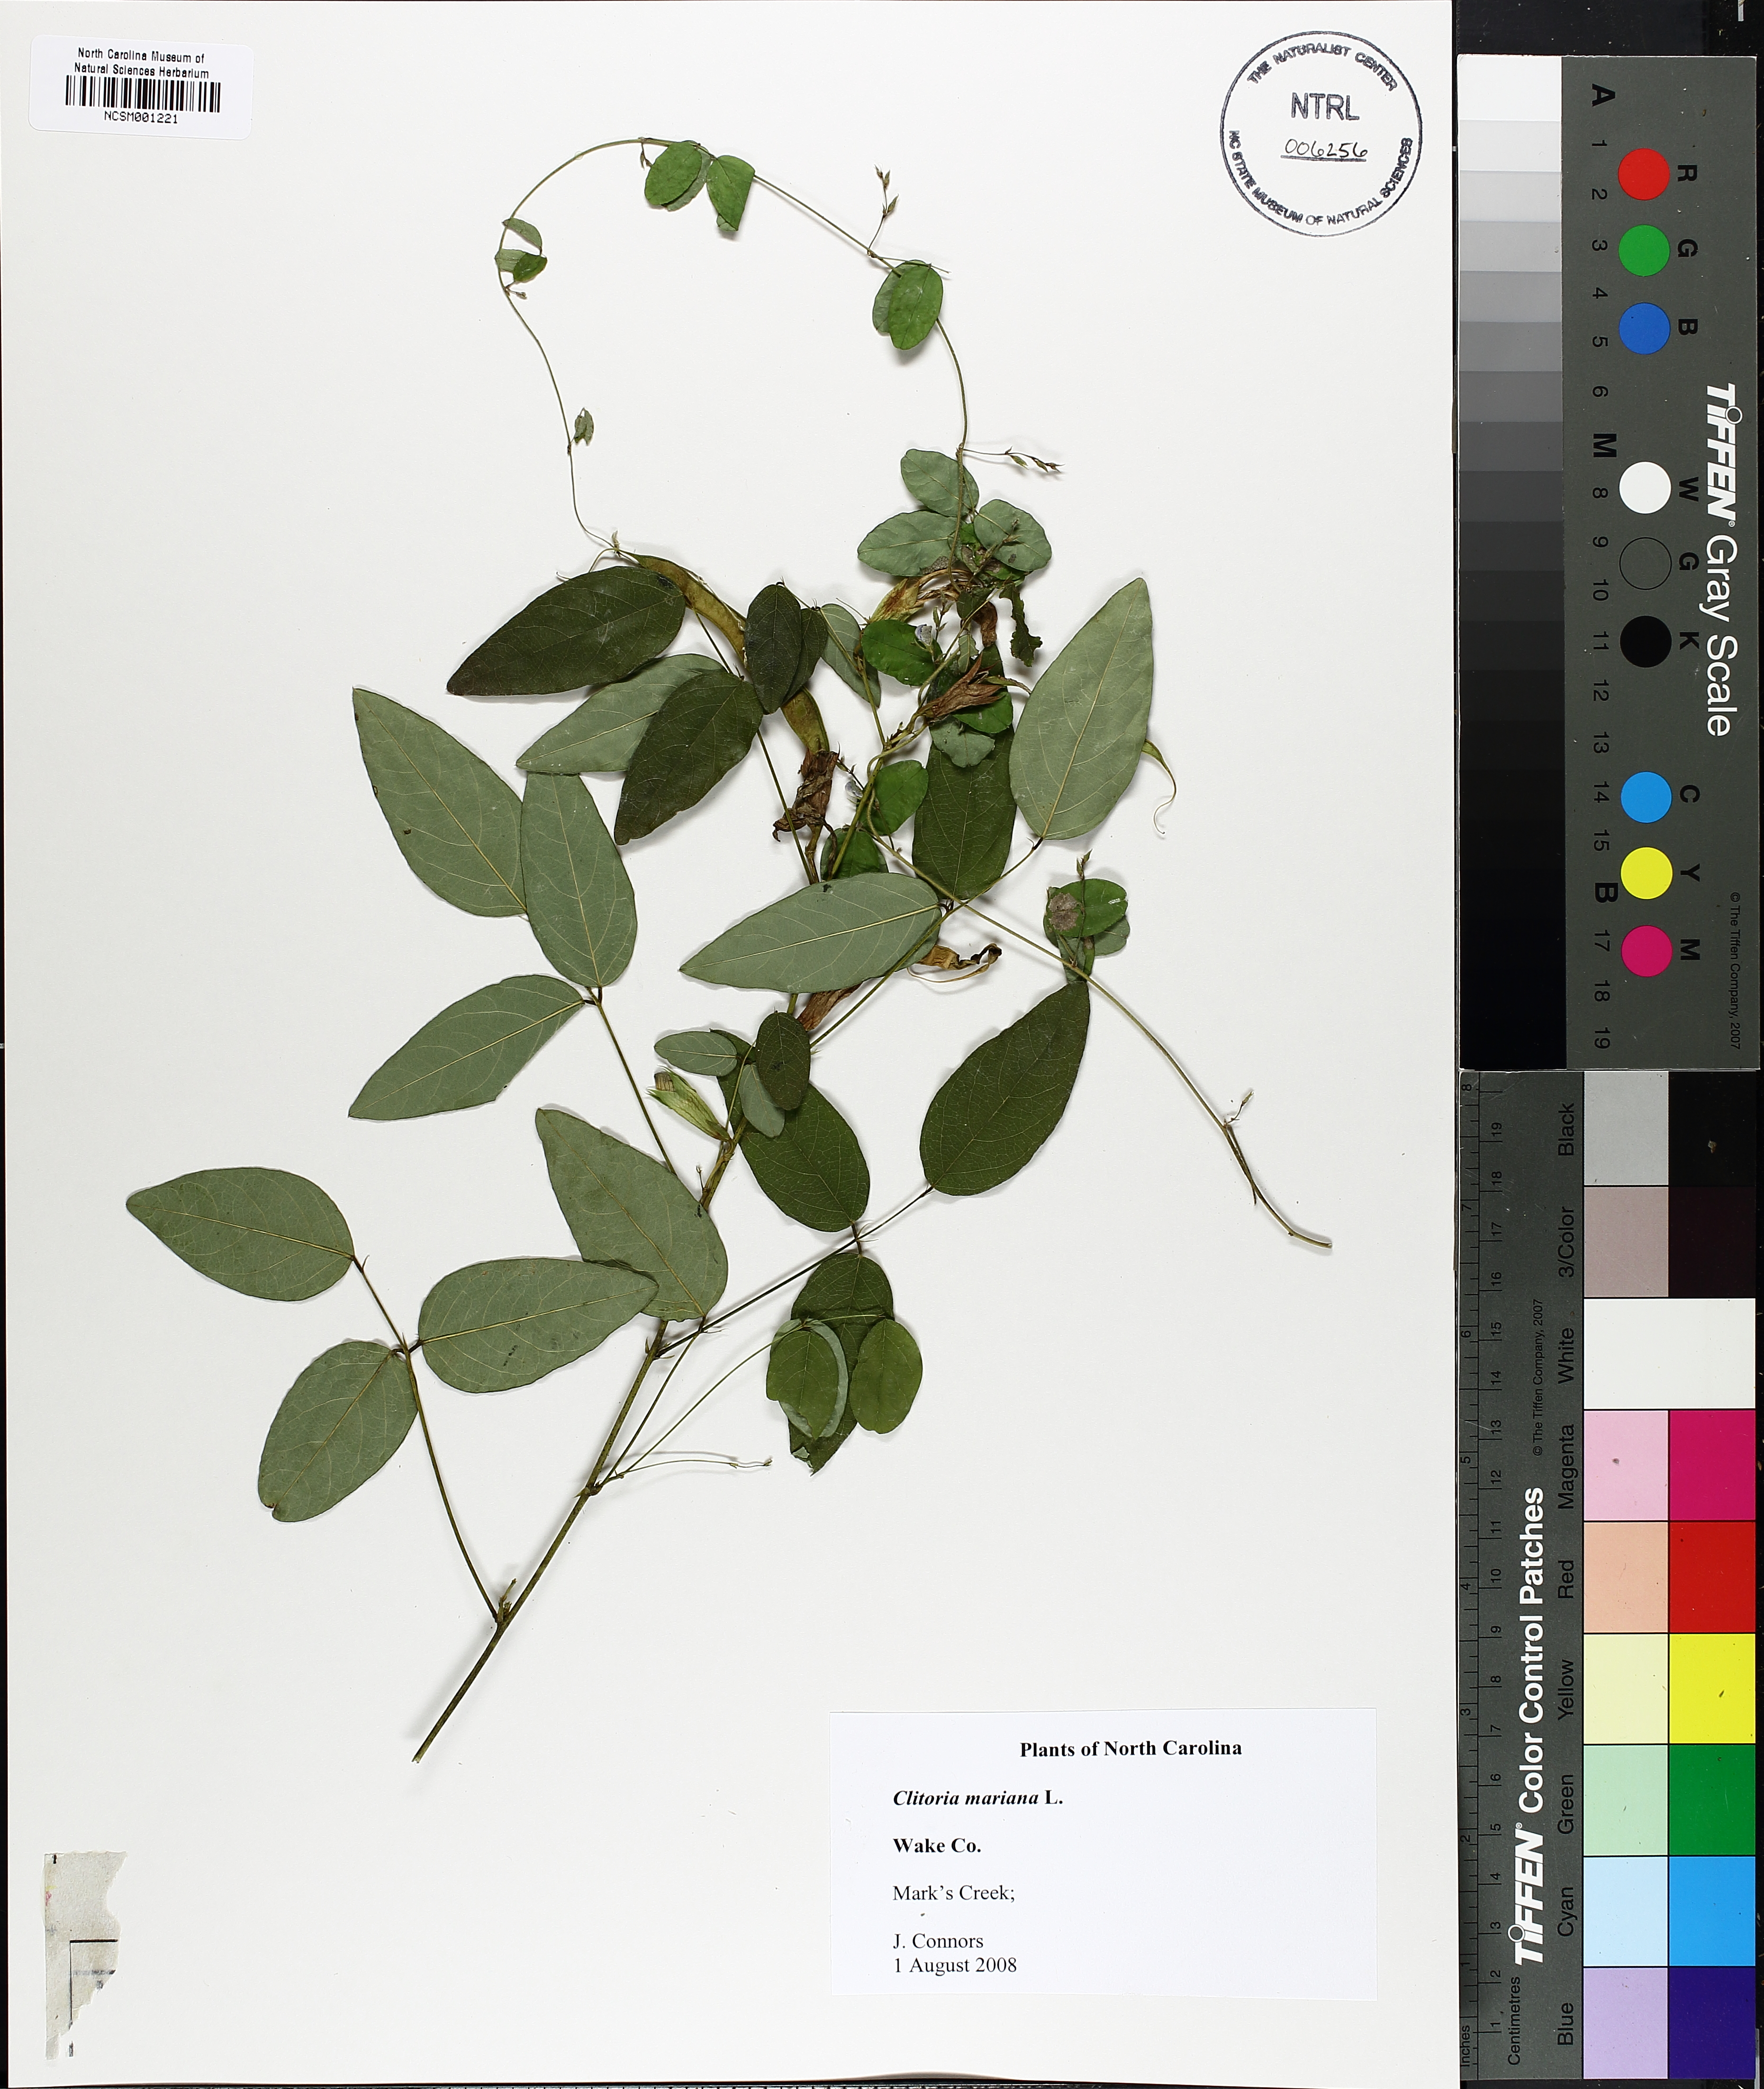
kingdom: Plantae
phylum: Tracheophyta
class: Magnoliopsida
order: Fabales
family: Fabaceae
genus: Clitoria
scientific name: Clitoria mariana
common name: Butterfly-pea
